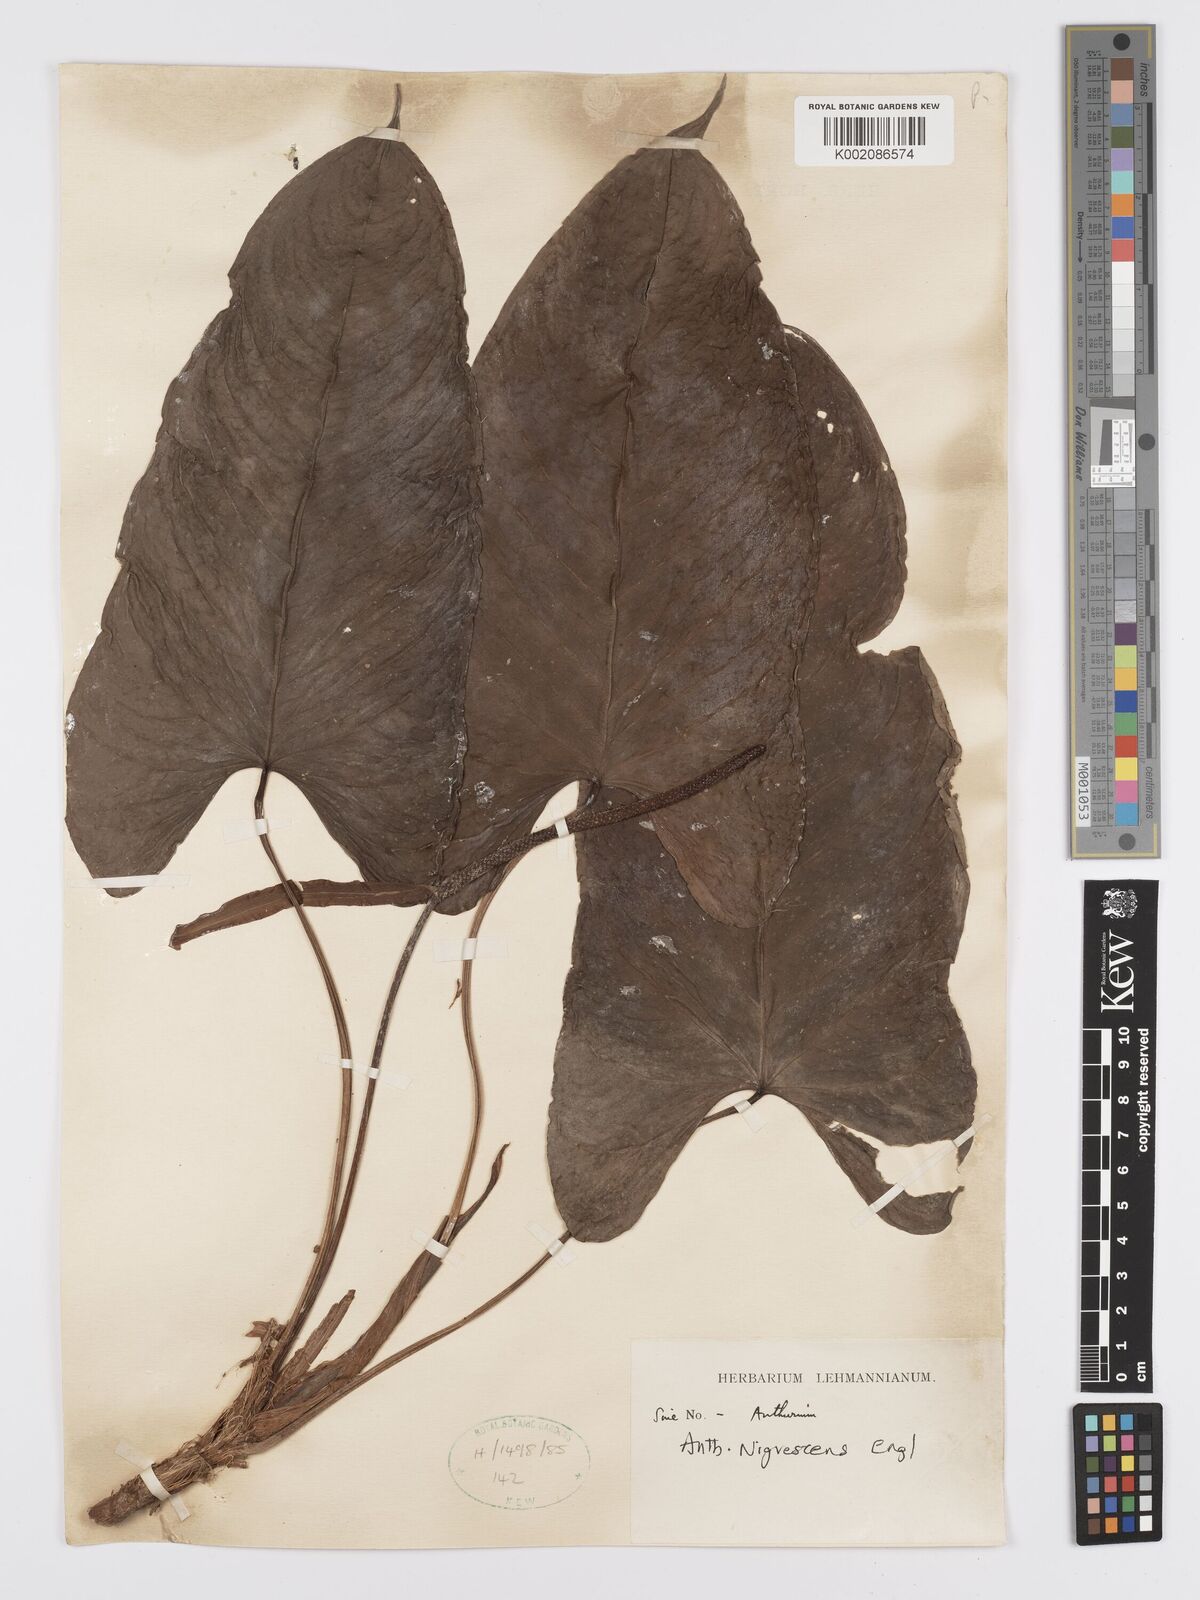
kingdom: Plantae
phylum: Tracheophyta
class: Liliopsida
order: Alismatales
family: Araceae
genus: Anthurium
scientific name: Anthurium nigrescens
